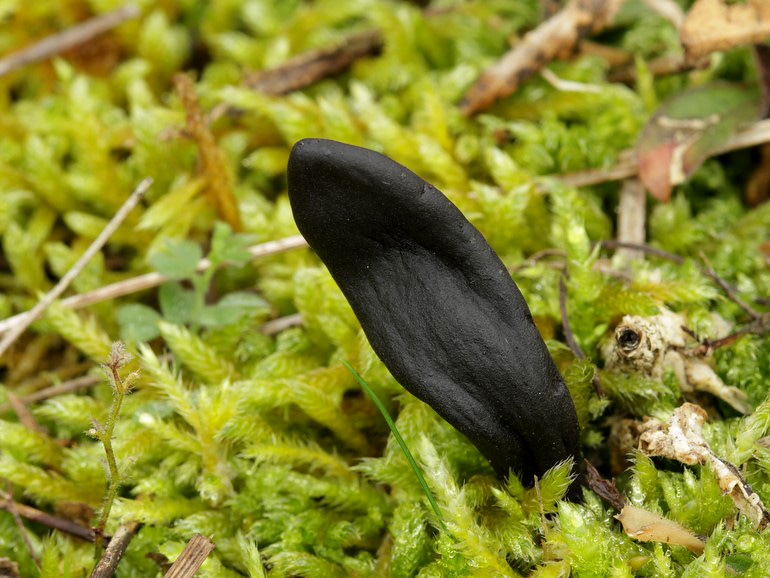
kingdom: Fungi
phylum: Ascomycota
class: Geoglossomycetes
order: Geoglossales
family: Geoglossaceae
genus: Geoglossum
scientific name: Geoglossum cookeianum
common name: bred jordtunge
